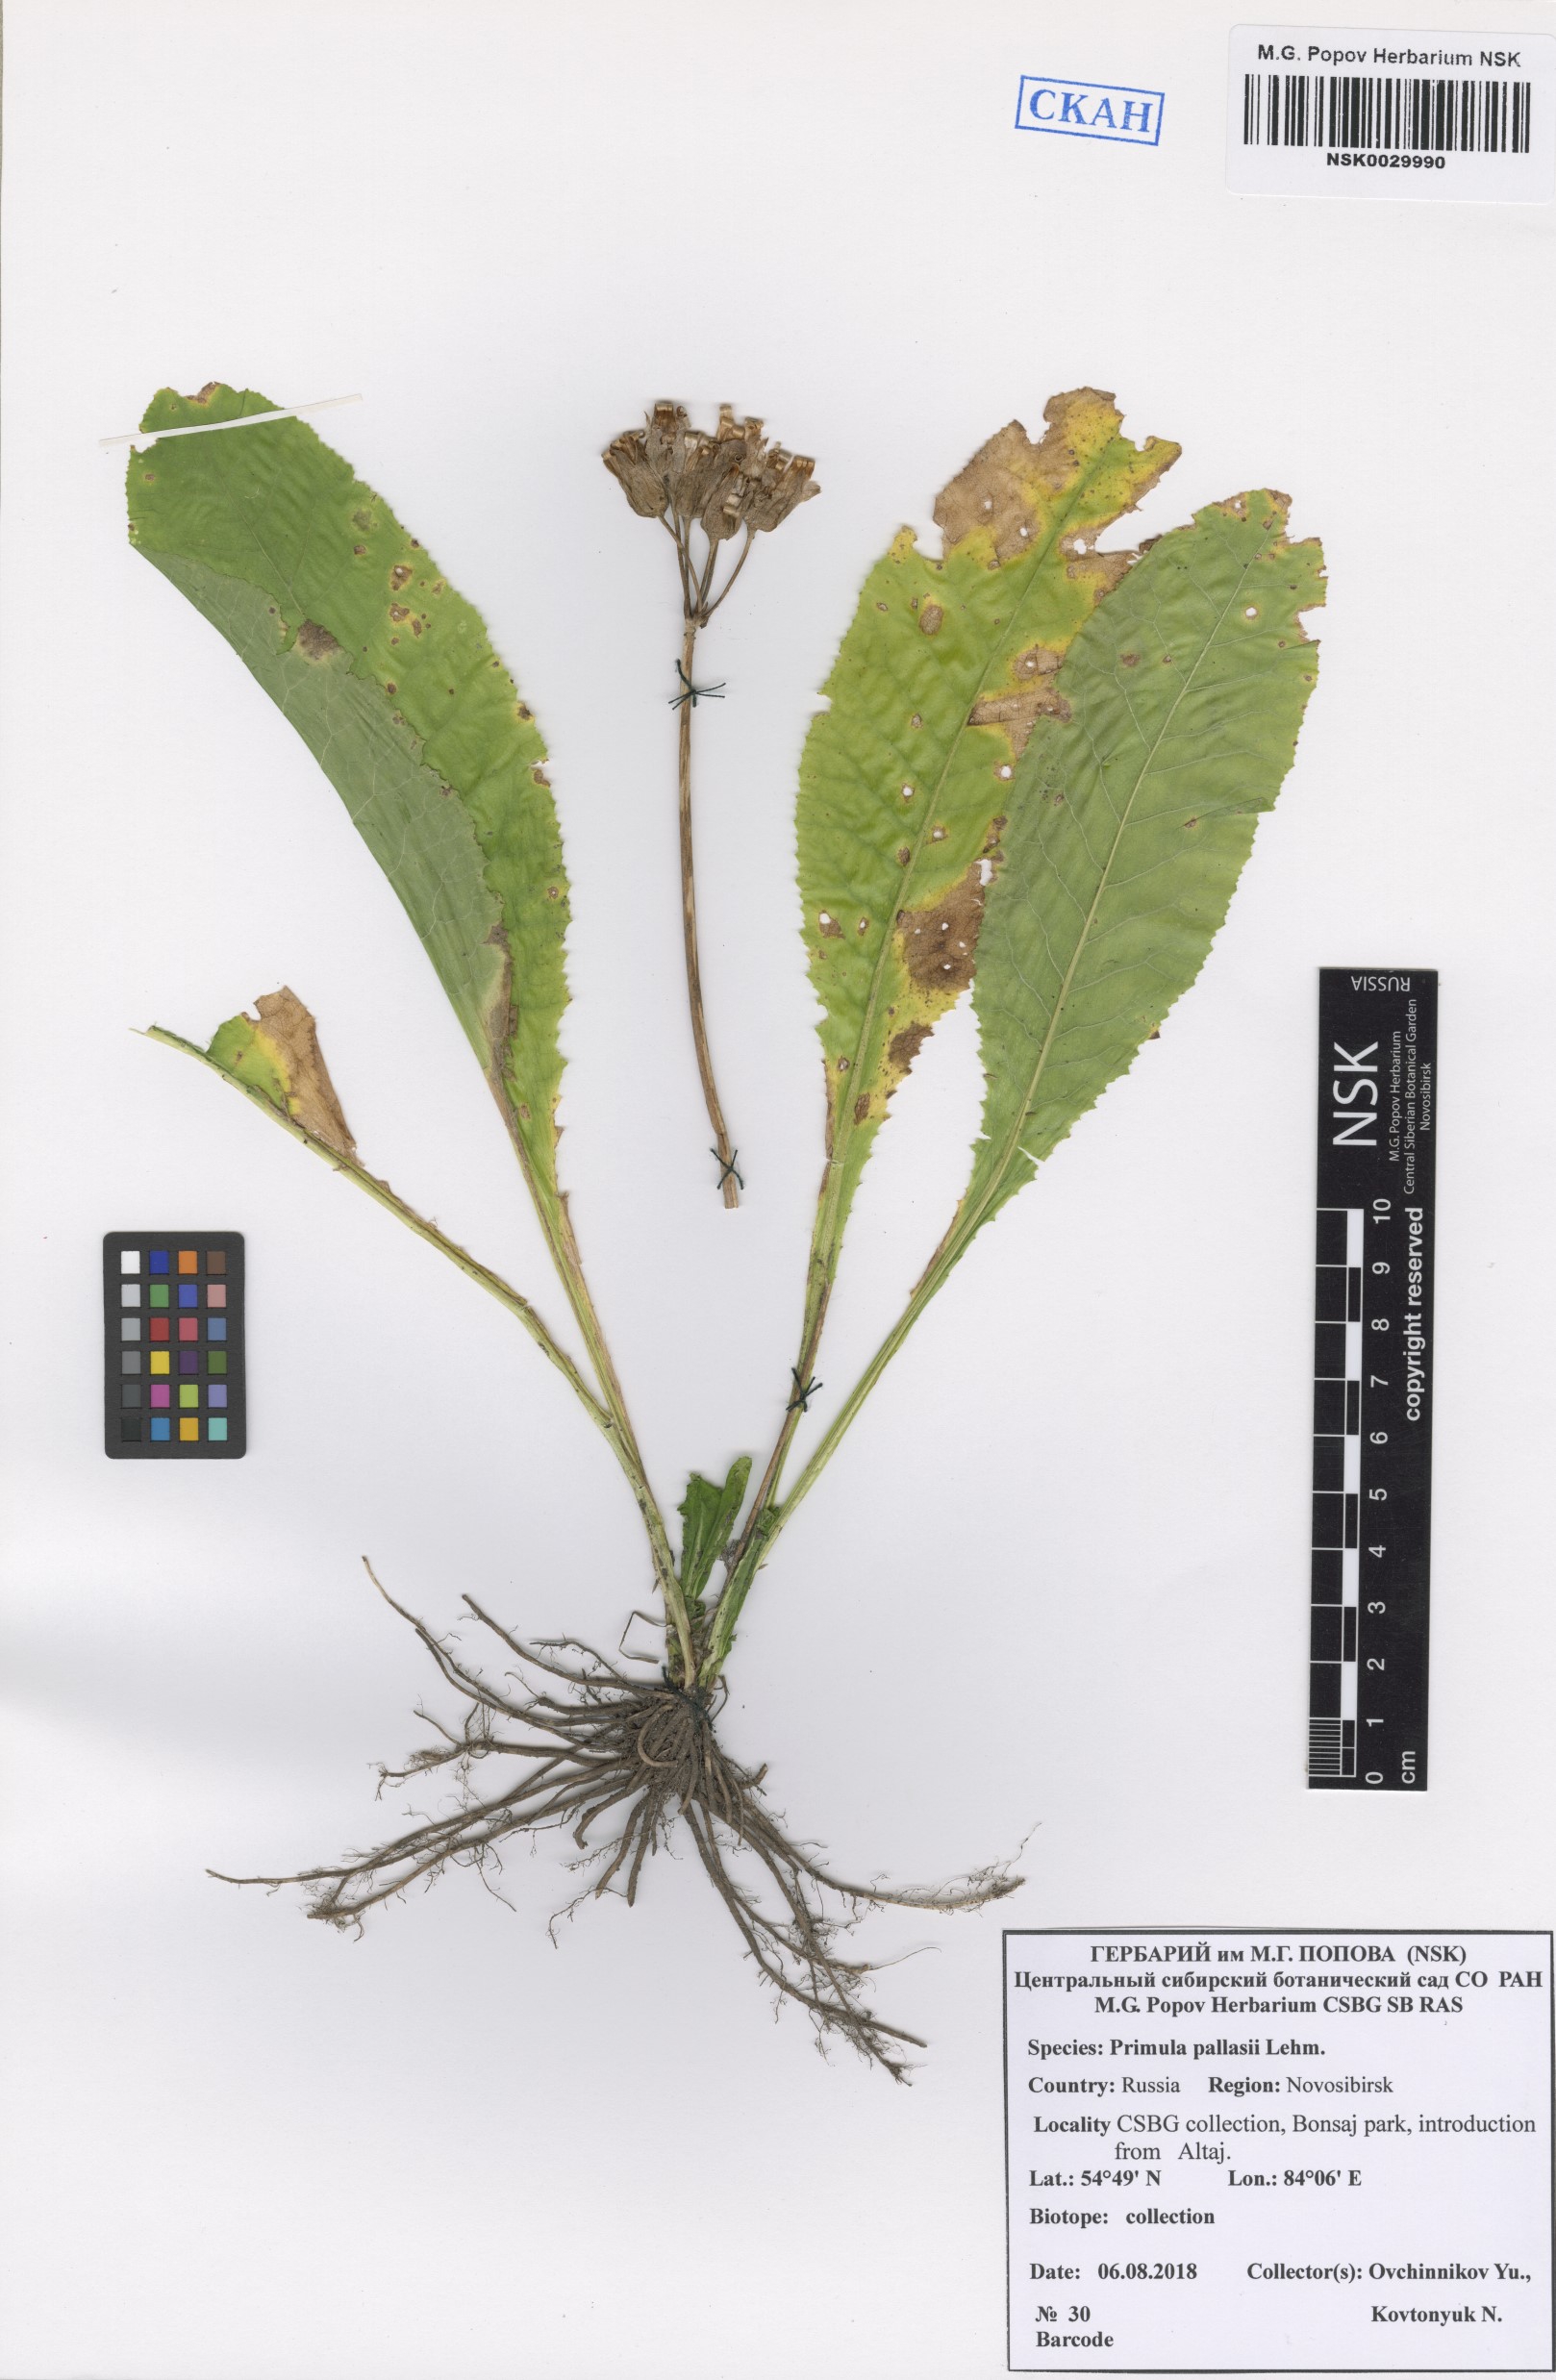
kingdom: Plantae
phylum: Tracheophyta
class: Magnoliopsida
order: Ericales
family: Primulaceae
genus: Primula
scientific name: Primula elatior
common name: Oxlip
